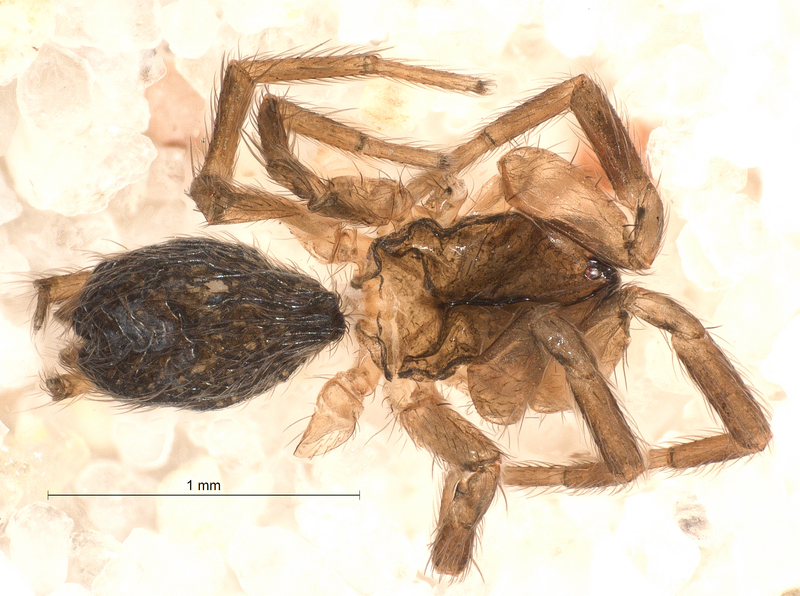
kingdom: Animalia
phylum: Arthropoda
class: Arachnida
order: Araneae
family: Hahniidae
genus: Hahnia
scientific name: Hahnia nava
